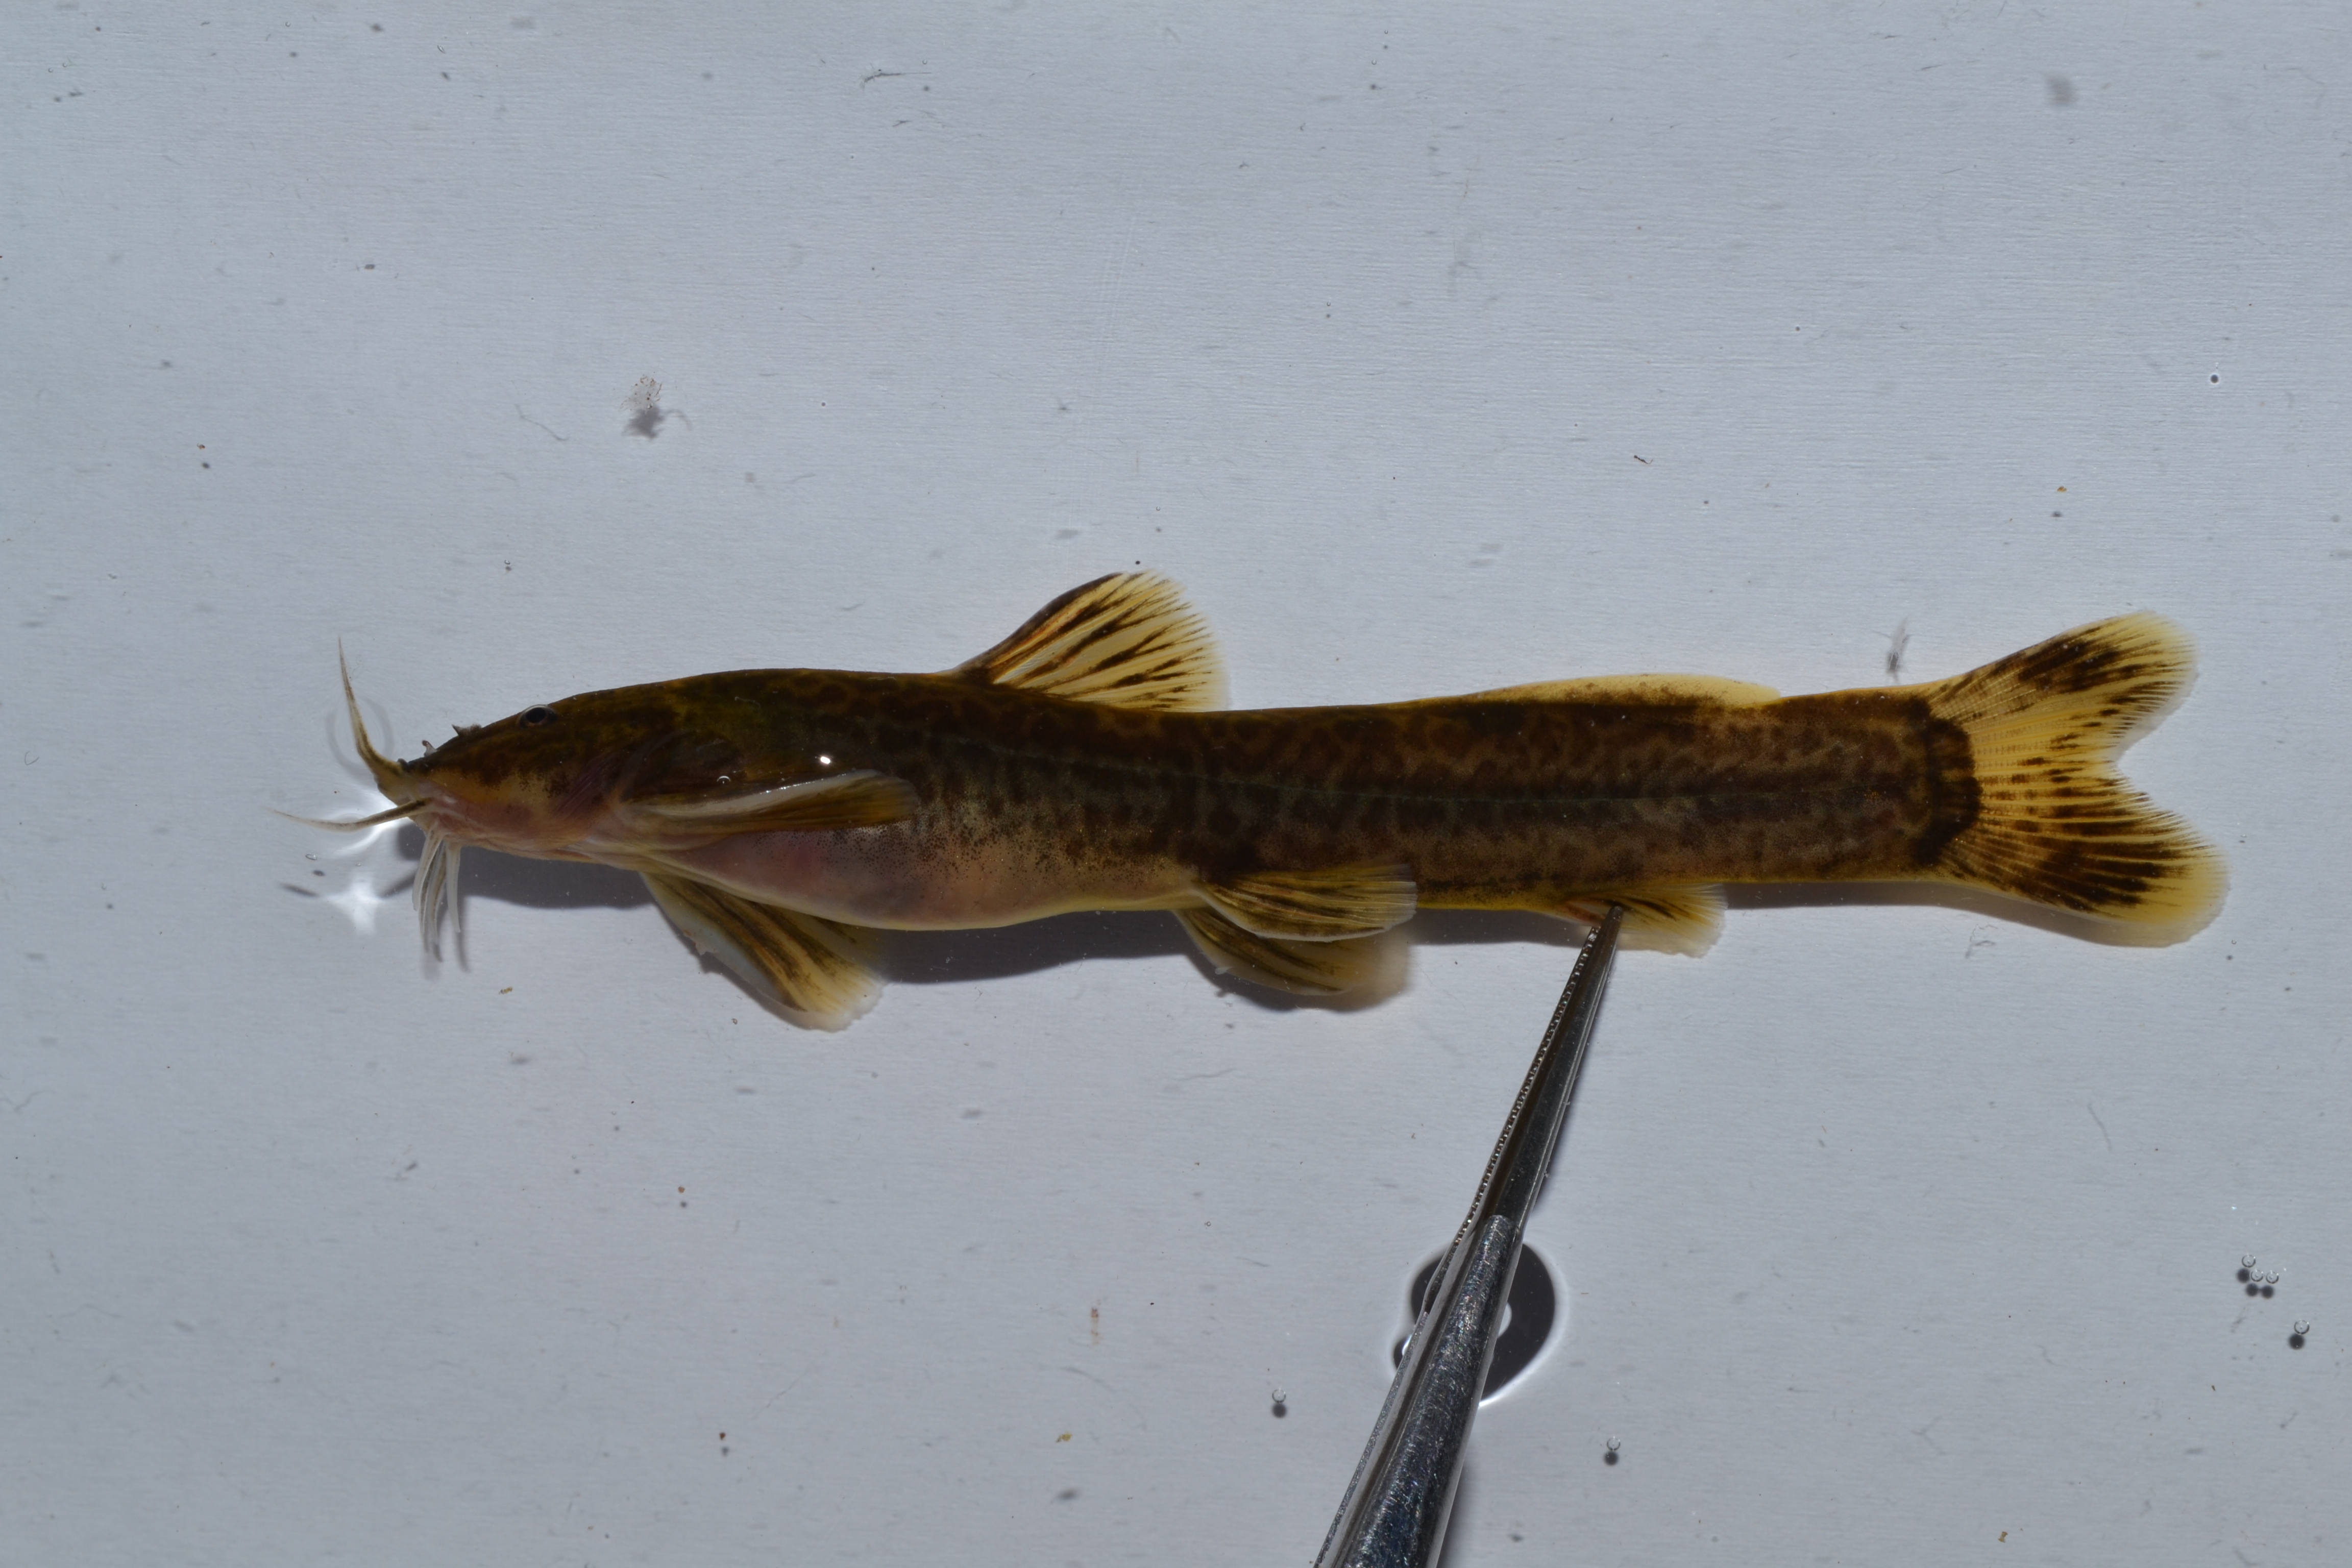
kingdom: Animalia
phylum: Chordata
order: Siluriformes
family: Amphiliidae
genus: Amphilius
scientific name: Amphilius uranoscopus
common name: Stargazer mountain catfish
